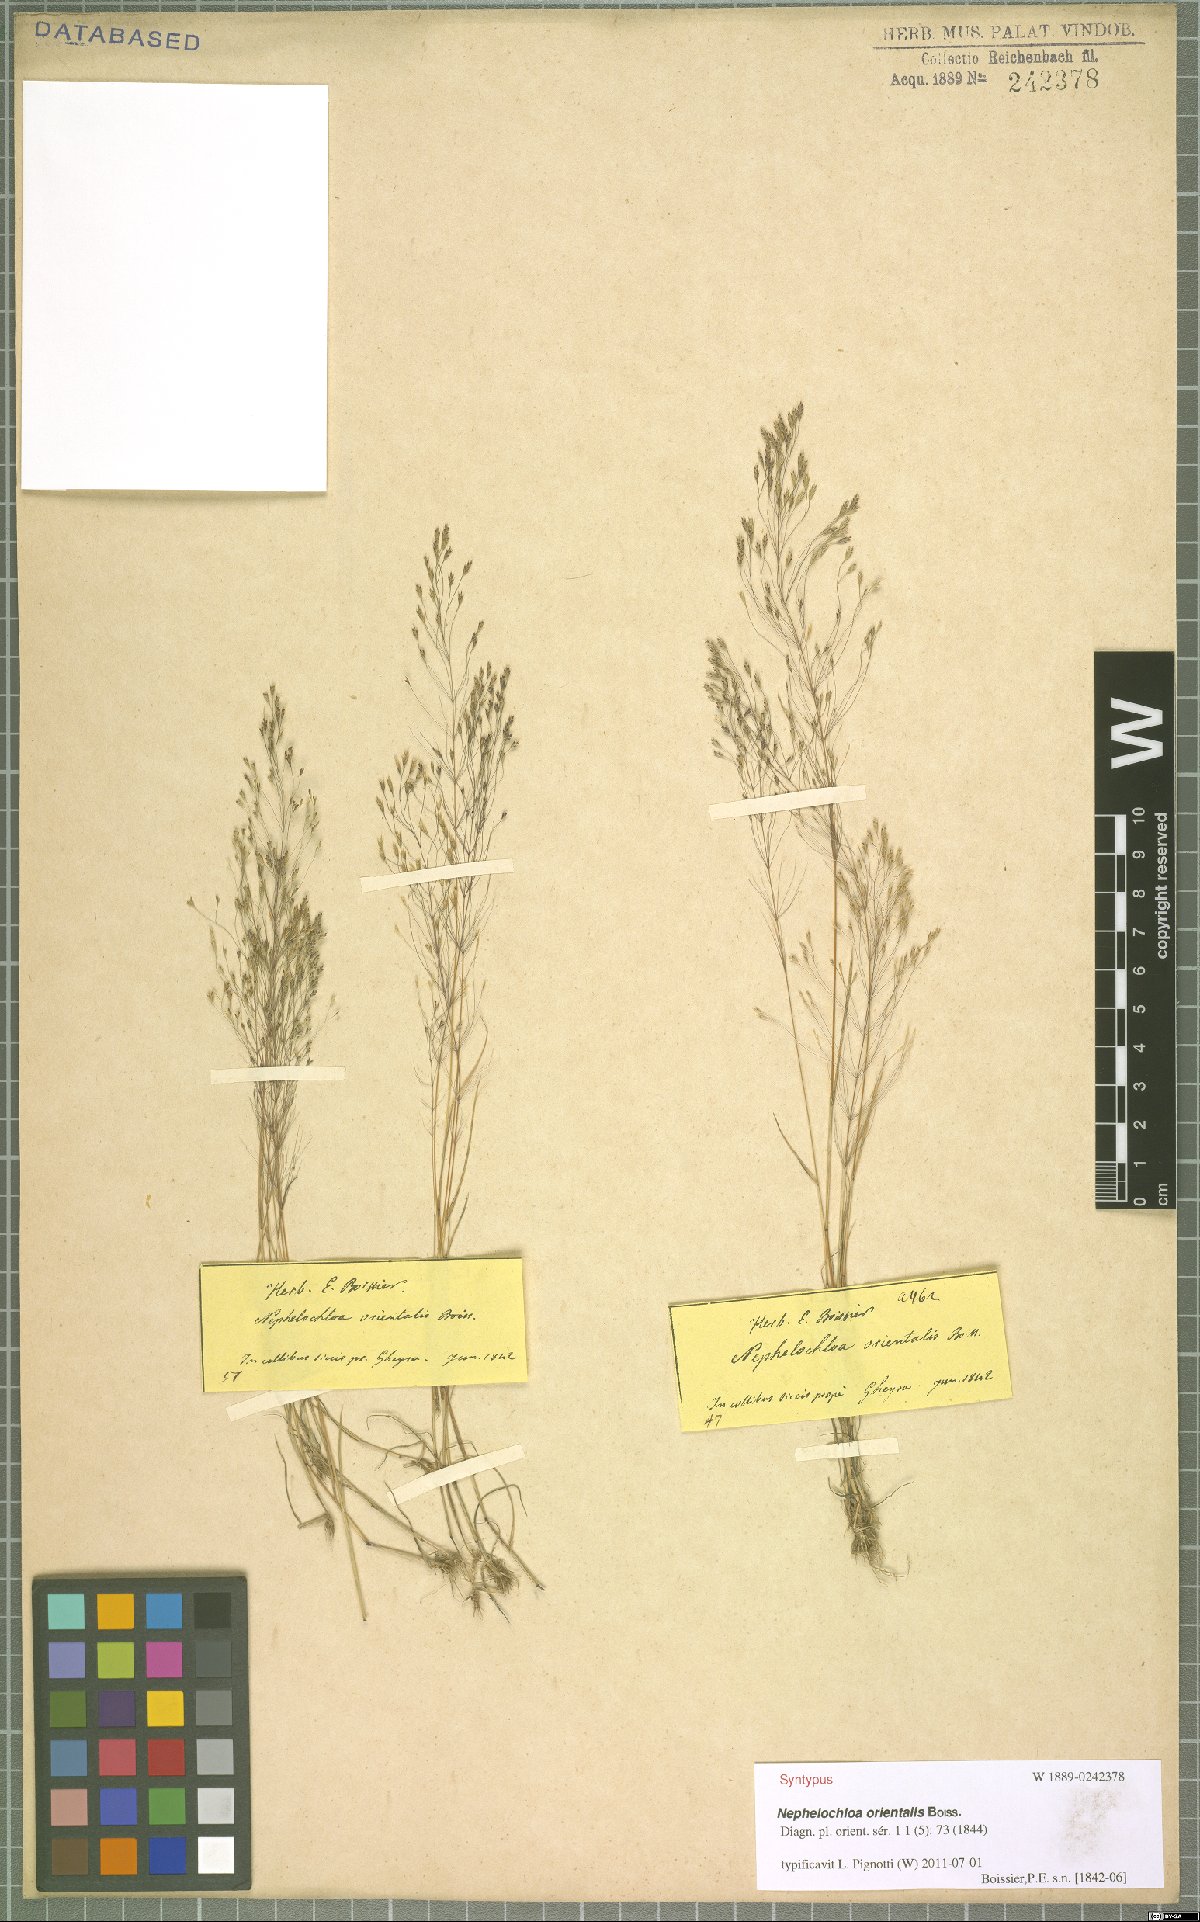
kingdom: Plantae
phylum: Tracheophyta
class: Liliopsida
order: Poales
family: Poaceae
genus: Nephelochloa
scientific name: Nephelochloa orientalis
